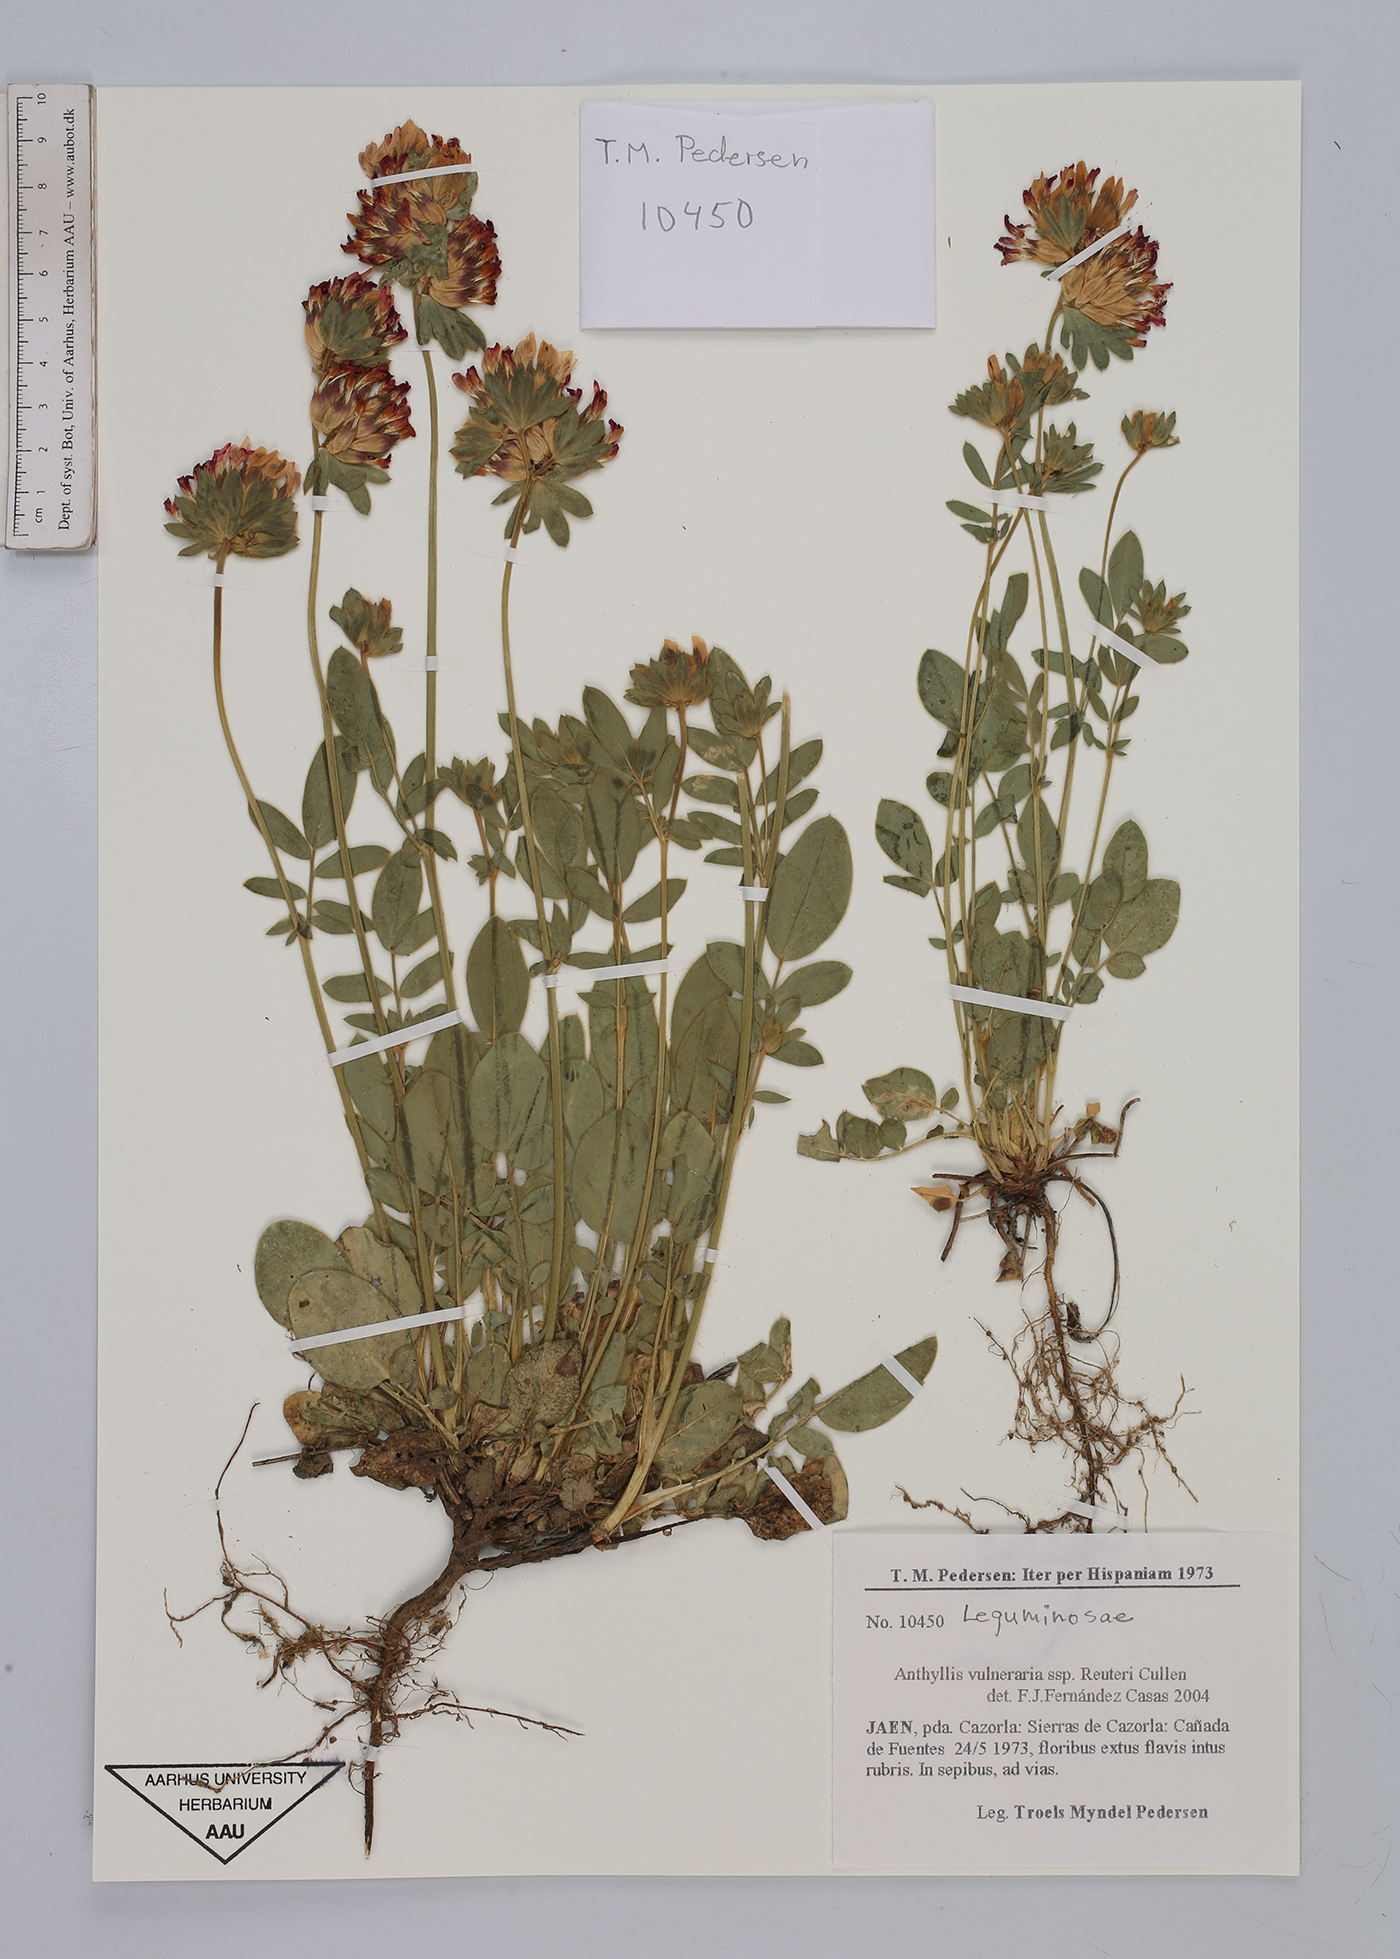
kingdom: Plantae
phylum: Tracheophyta
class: Magnoliopsida
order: Fabales
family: Fabaceae
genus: Anthyllis
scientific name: Anthyllis vulneraria
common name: Kidney vetch
